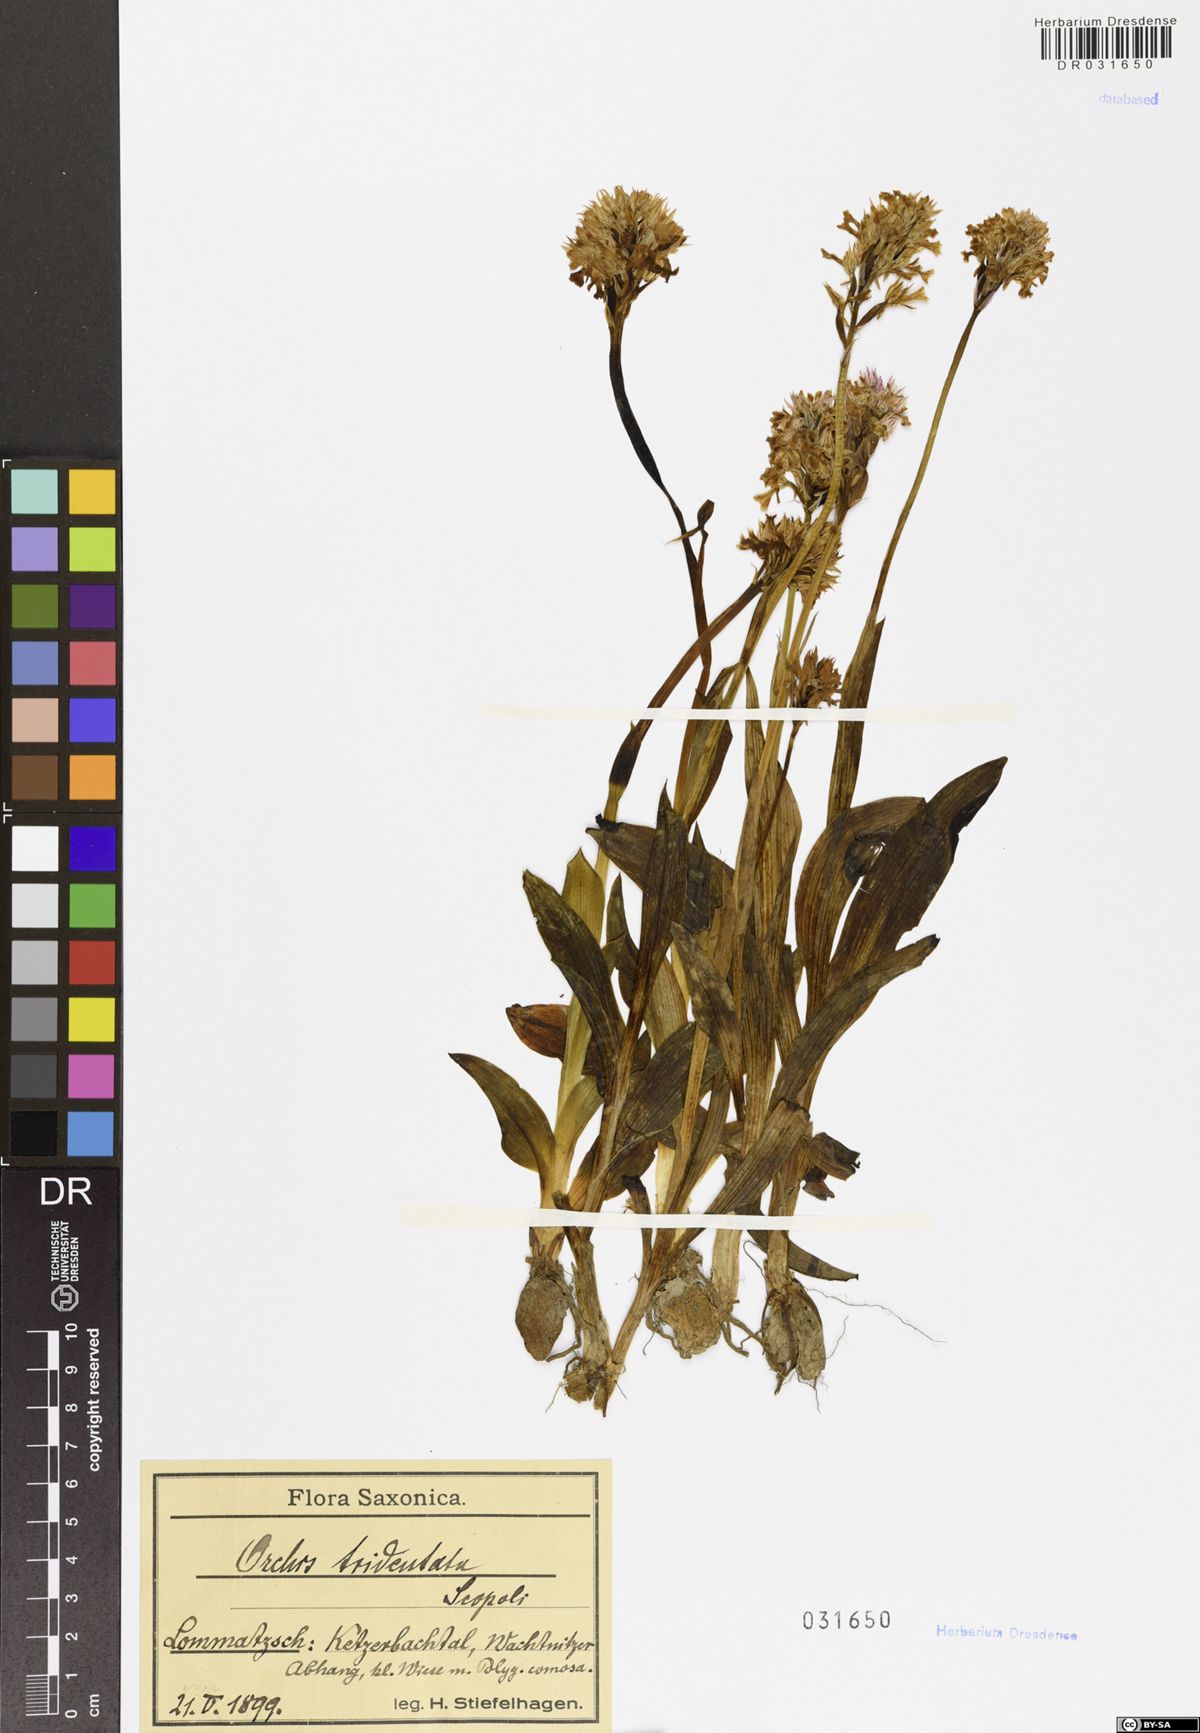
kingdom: Plantae
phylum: Tracheophyta
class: Liliopsida
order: Asparagales
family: Orchidaceae
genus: Neotinea
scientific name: Neotinea tridentata
